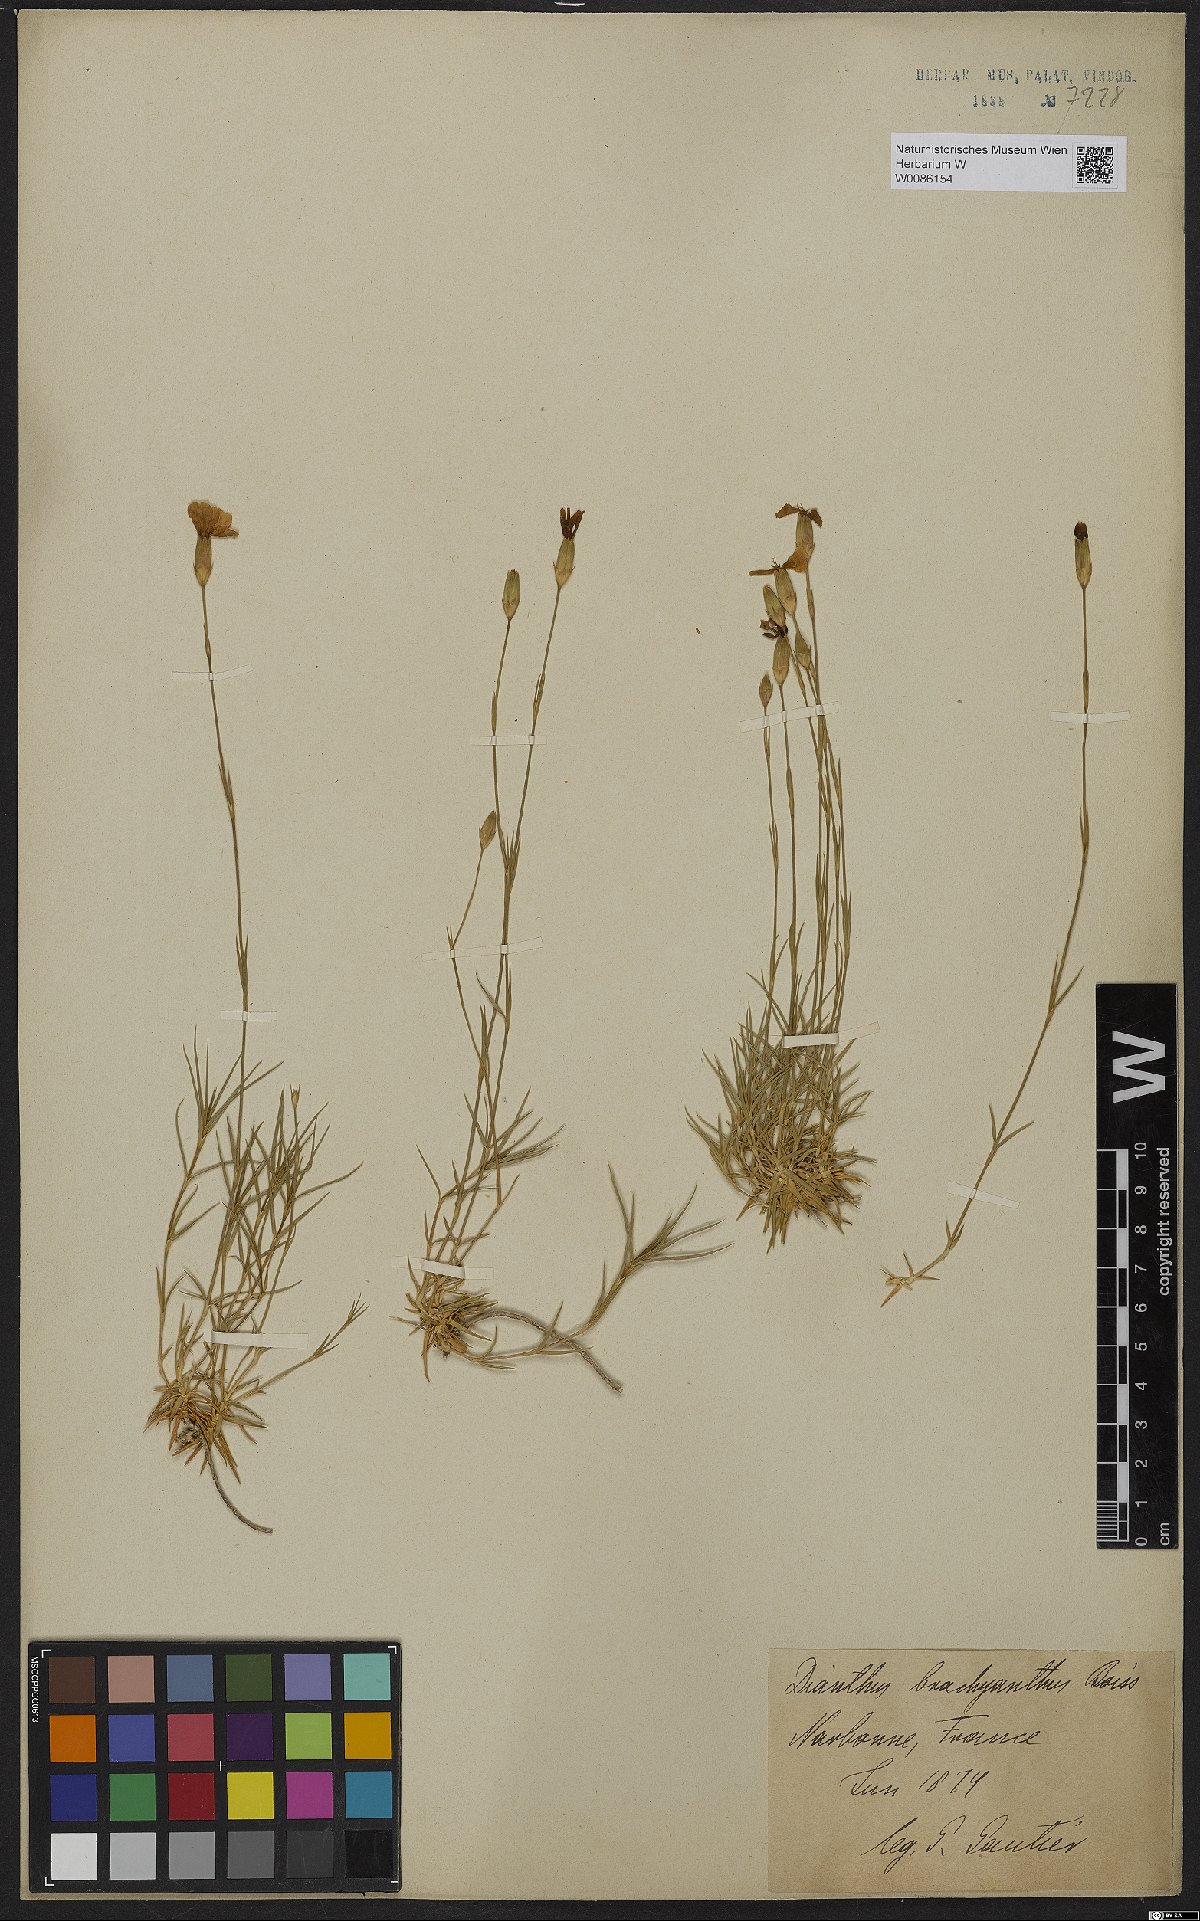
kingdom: Plantae
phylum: Tracheophyta
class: Magnoliopsida
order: Caryophyllales
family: Caryophyllaceae
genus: Dianthus
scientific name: Dianthus pungens
